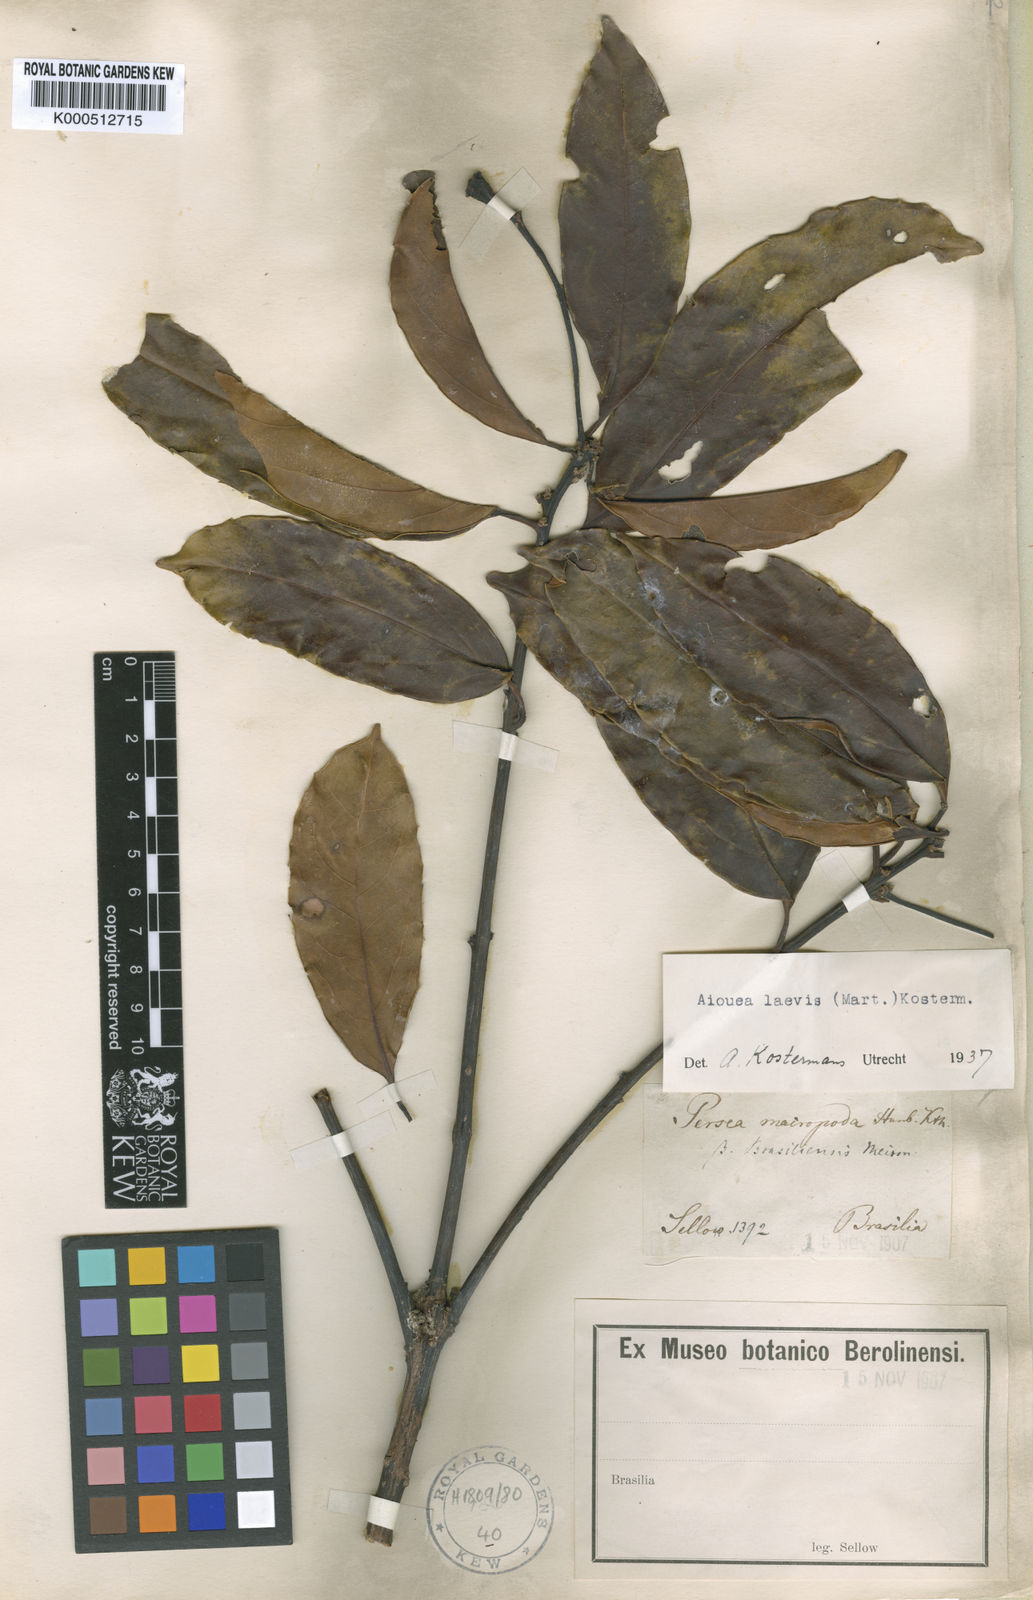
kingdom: Plantae
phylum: Tracheophyta
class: Magnoliopsida
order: Laurales
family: Lauraceae
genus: Aiouea
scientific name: Aiouea laevis
